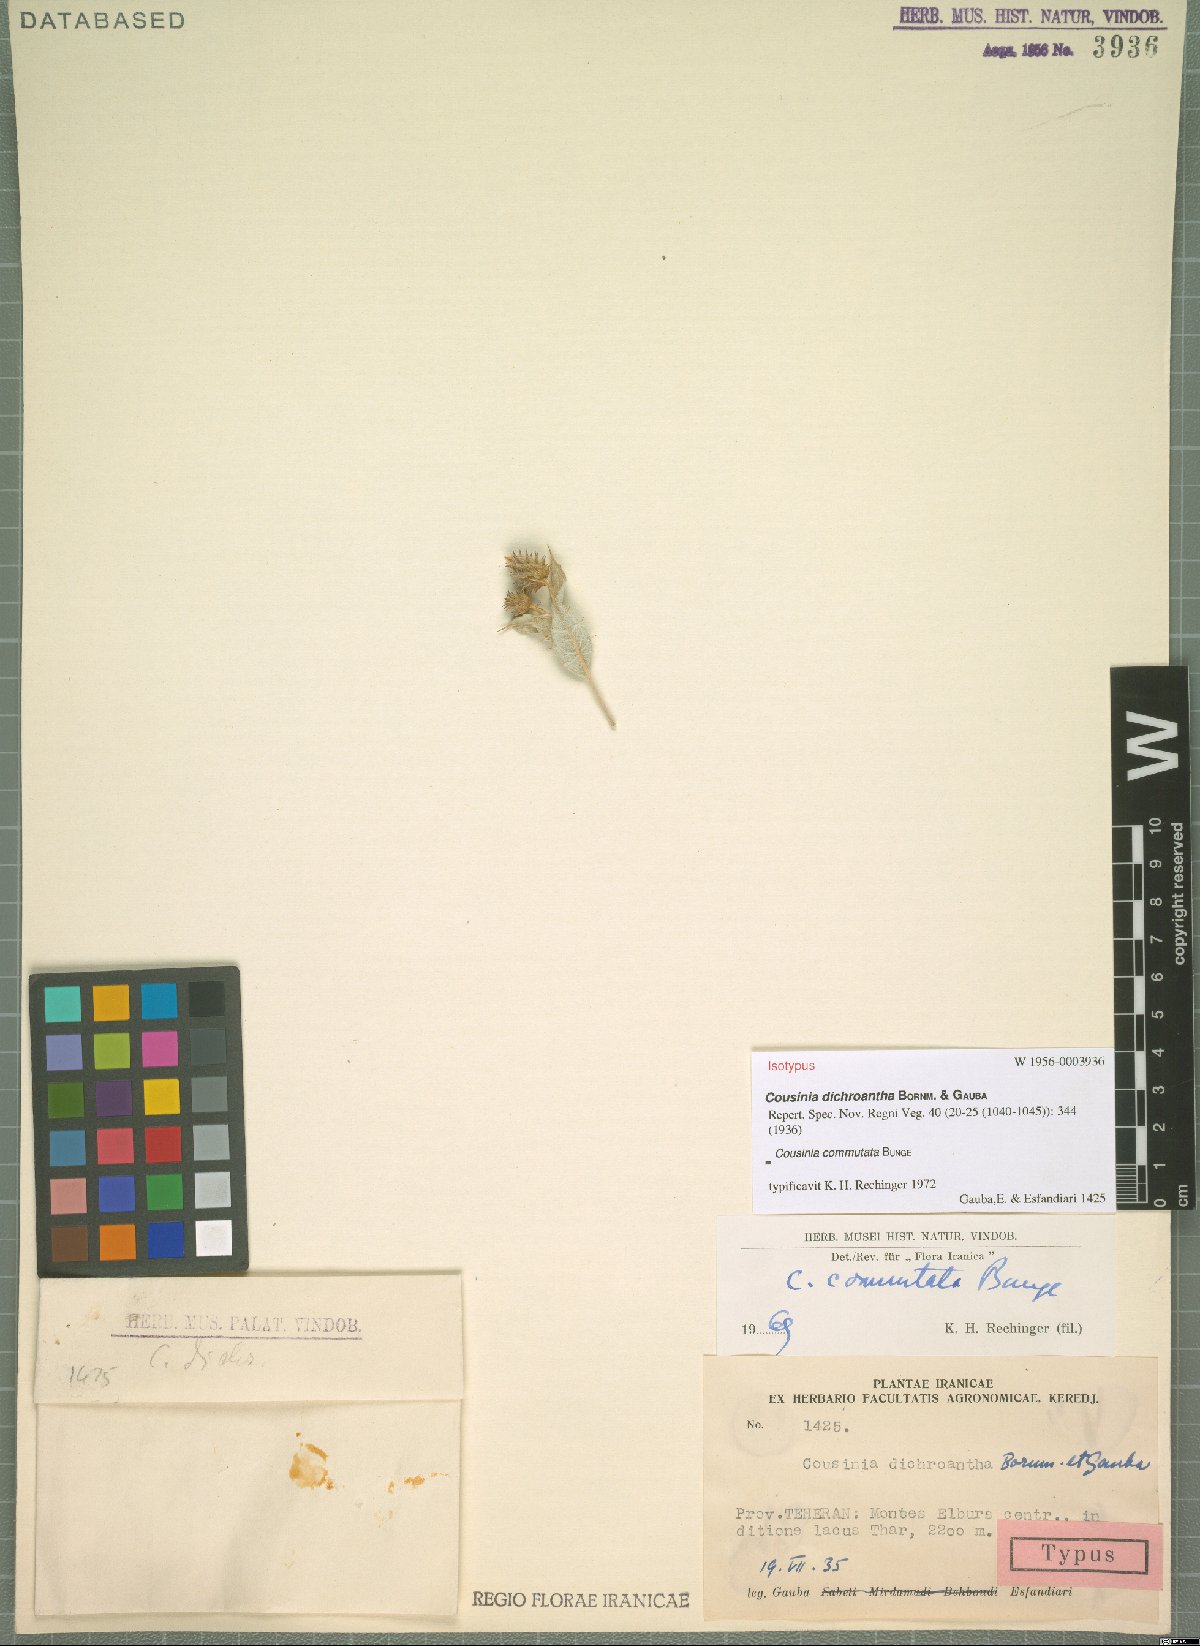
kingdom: Plantae
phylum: Tracheophyta
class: Magnoliopsida
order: Asterales
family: Asteraceae
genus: Cousinia
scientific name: Cousinia commutata
